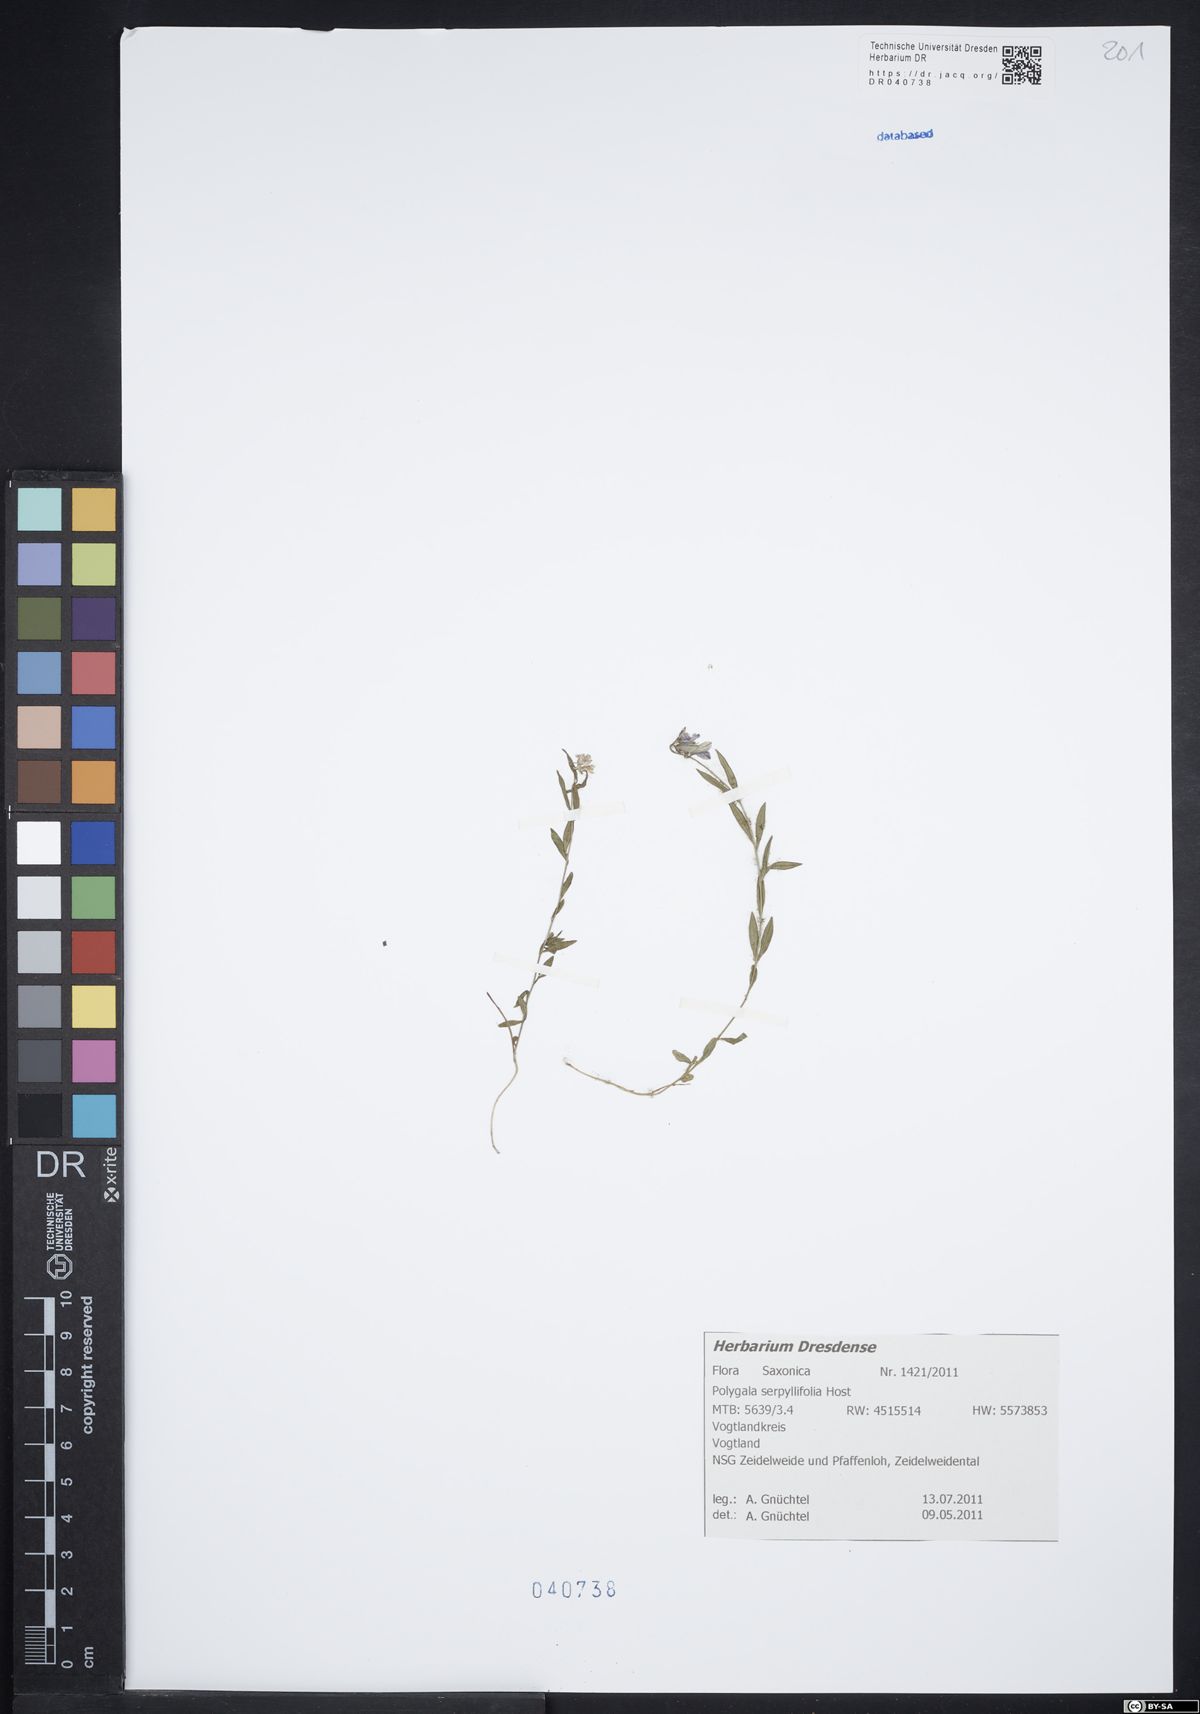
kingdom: Plantae
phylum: Tracheophyta
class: Magnoliopsida
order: Fabales
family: Polygalaceae
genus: Polygala
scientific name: Polygala serpyllifolia
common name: Heath milkwort
